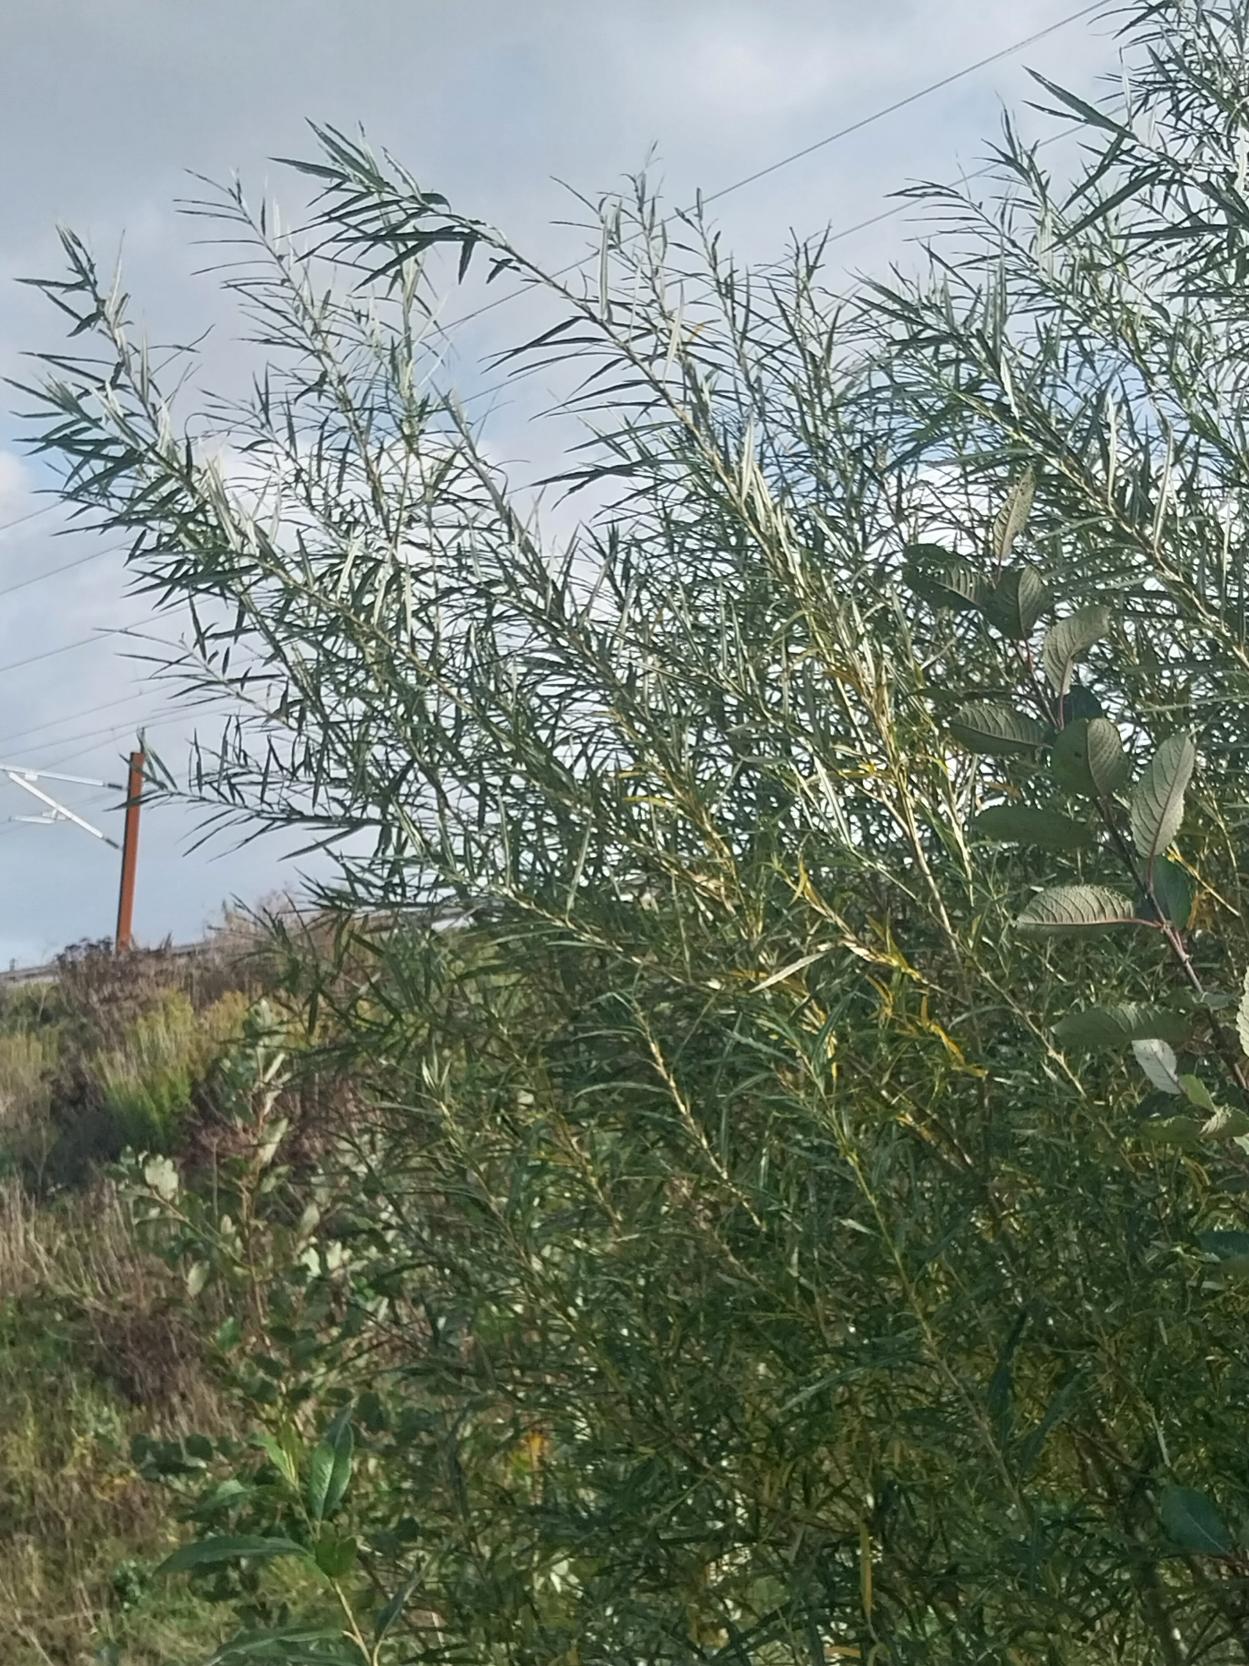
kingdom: Plantae
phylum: Tracheophyta
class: Magnoliopsida
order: Malpighiales
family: Salicaceae
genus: Salix
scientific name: Salix viminalis
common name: Bånd-pil
